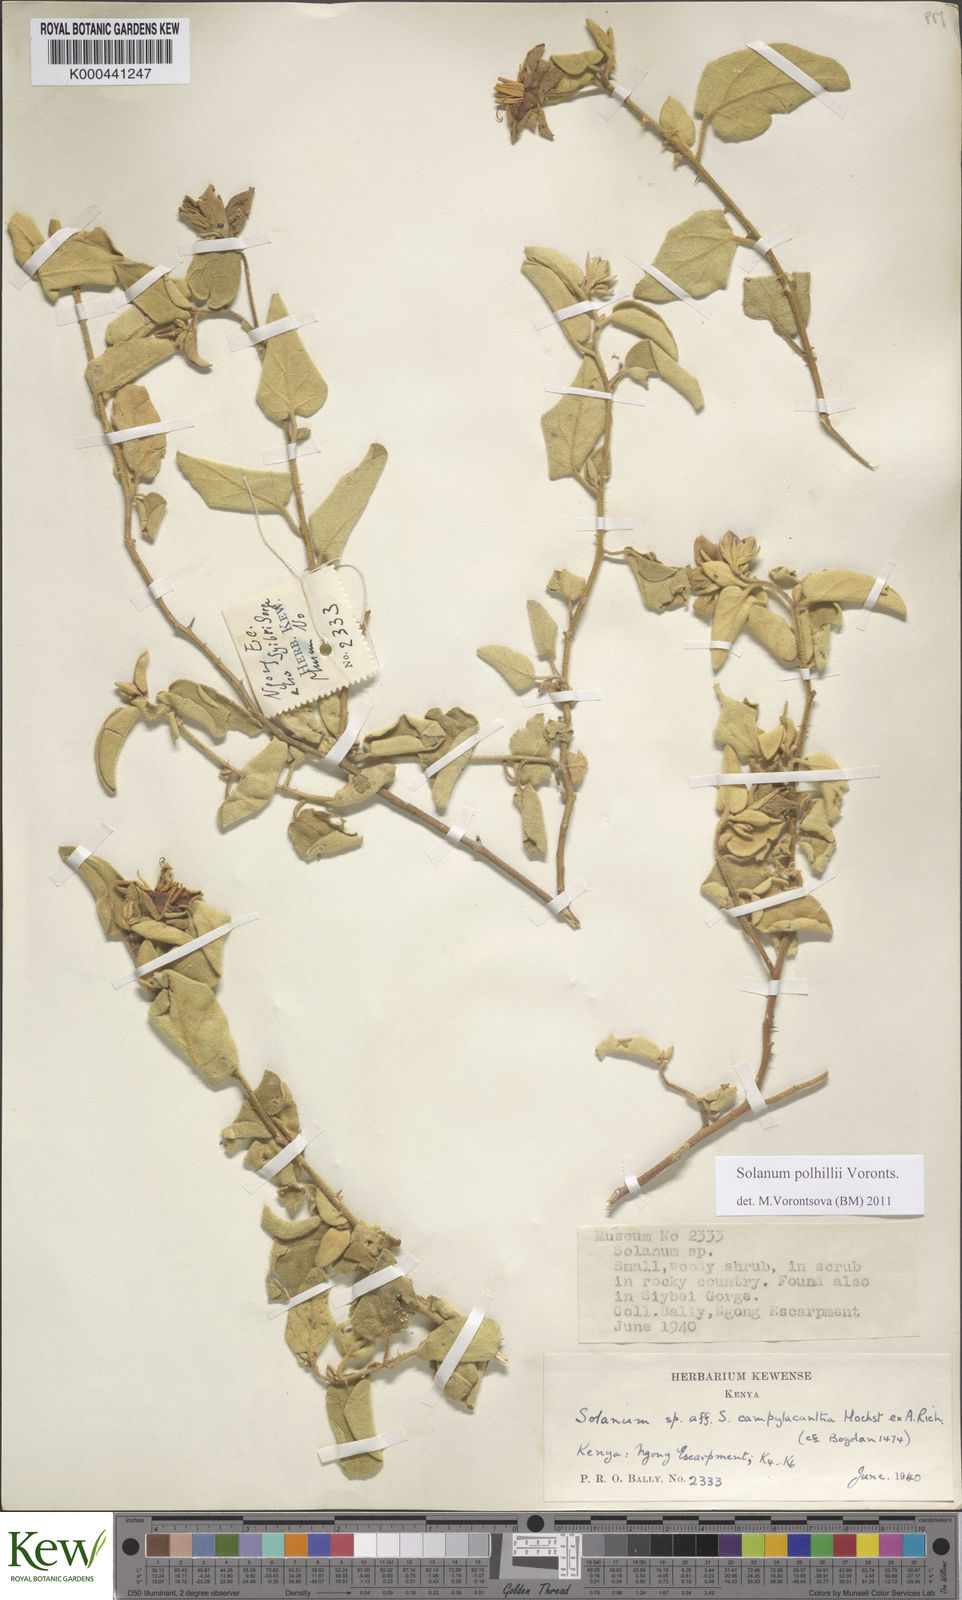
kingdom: Plantae
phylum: Tracheophyta
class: Magnoliopsida
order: Solanales
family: Solanaceae
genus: Solanum
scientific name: Solanum polhillii
